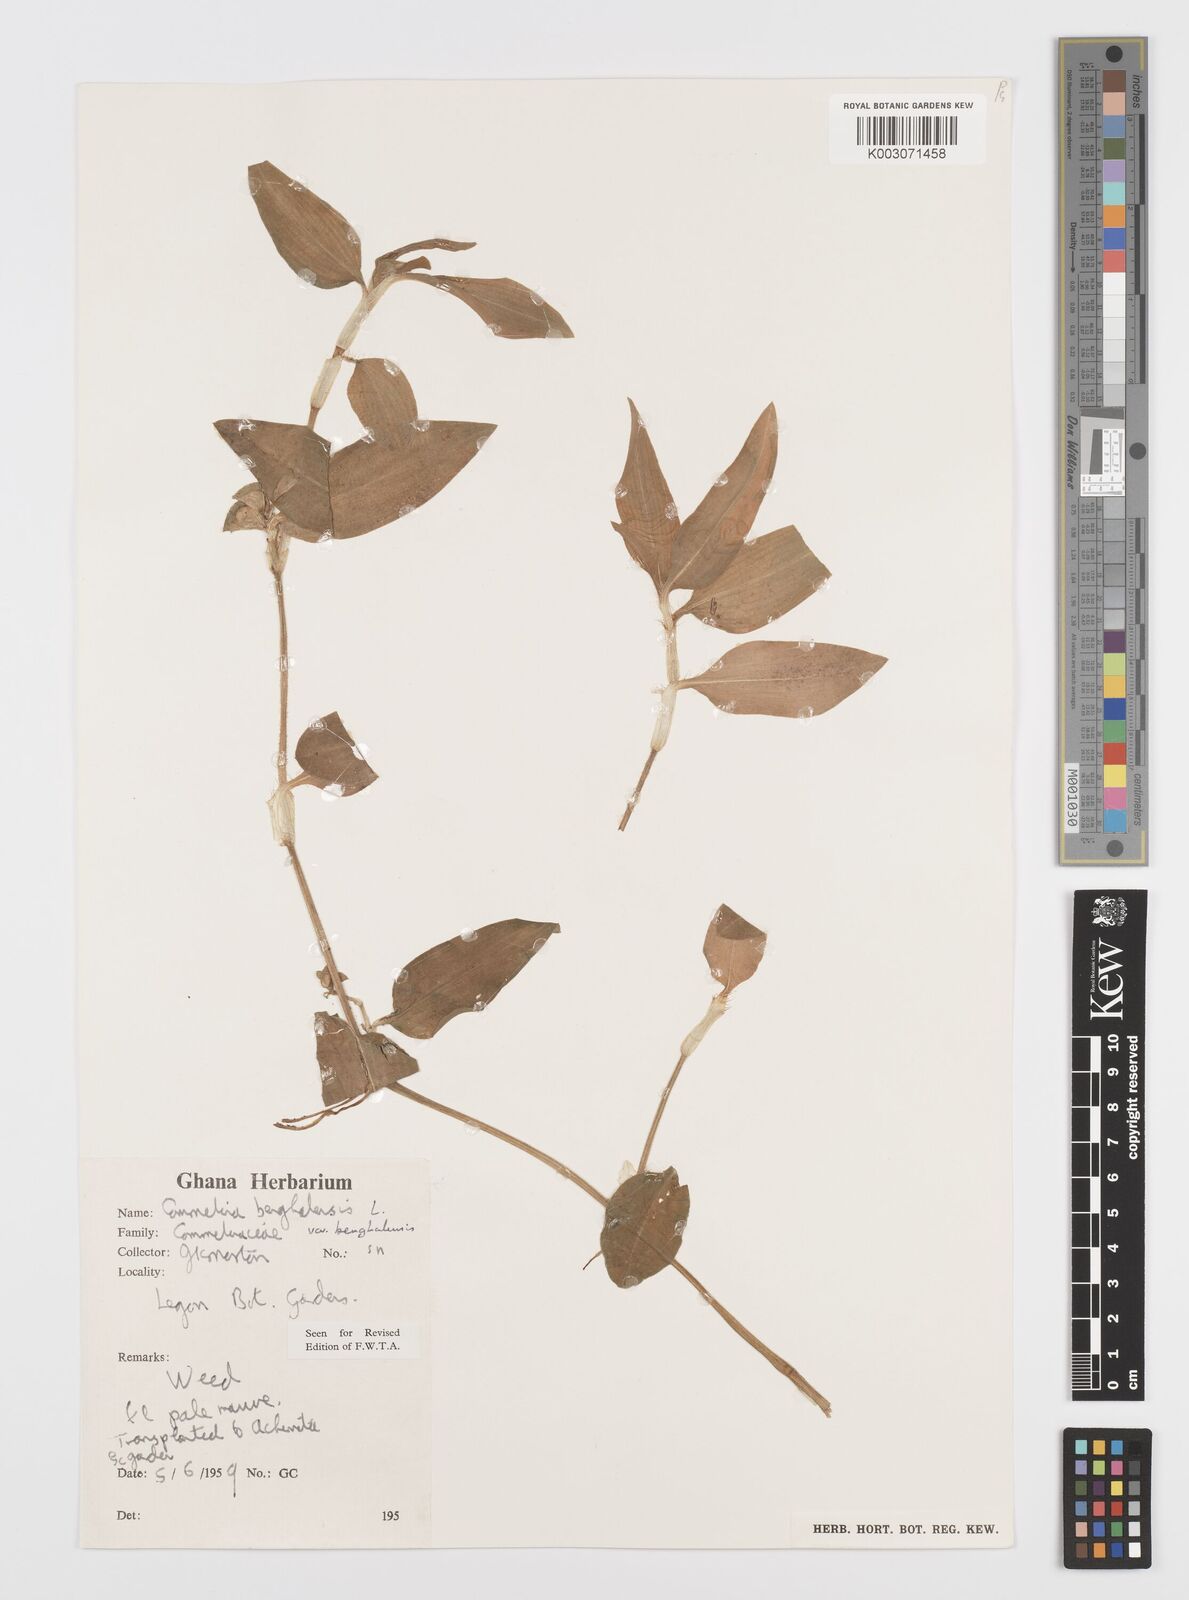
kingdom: Plantae
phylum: Tracheophyta
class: Liliopsida
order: Commelinales
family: Commelinaceae
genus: Commelina
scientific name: Commelina benghalensis
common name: Jio
